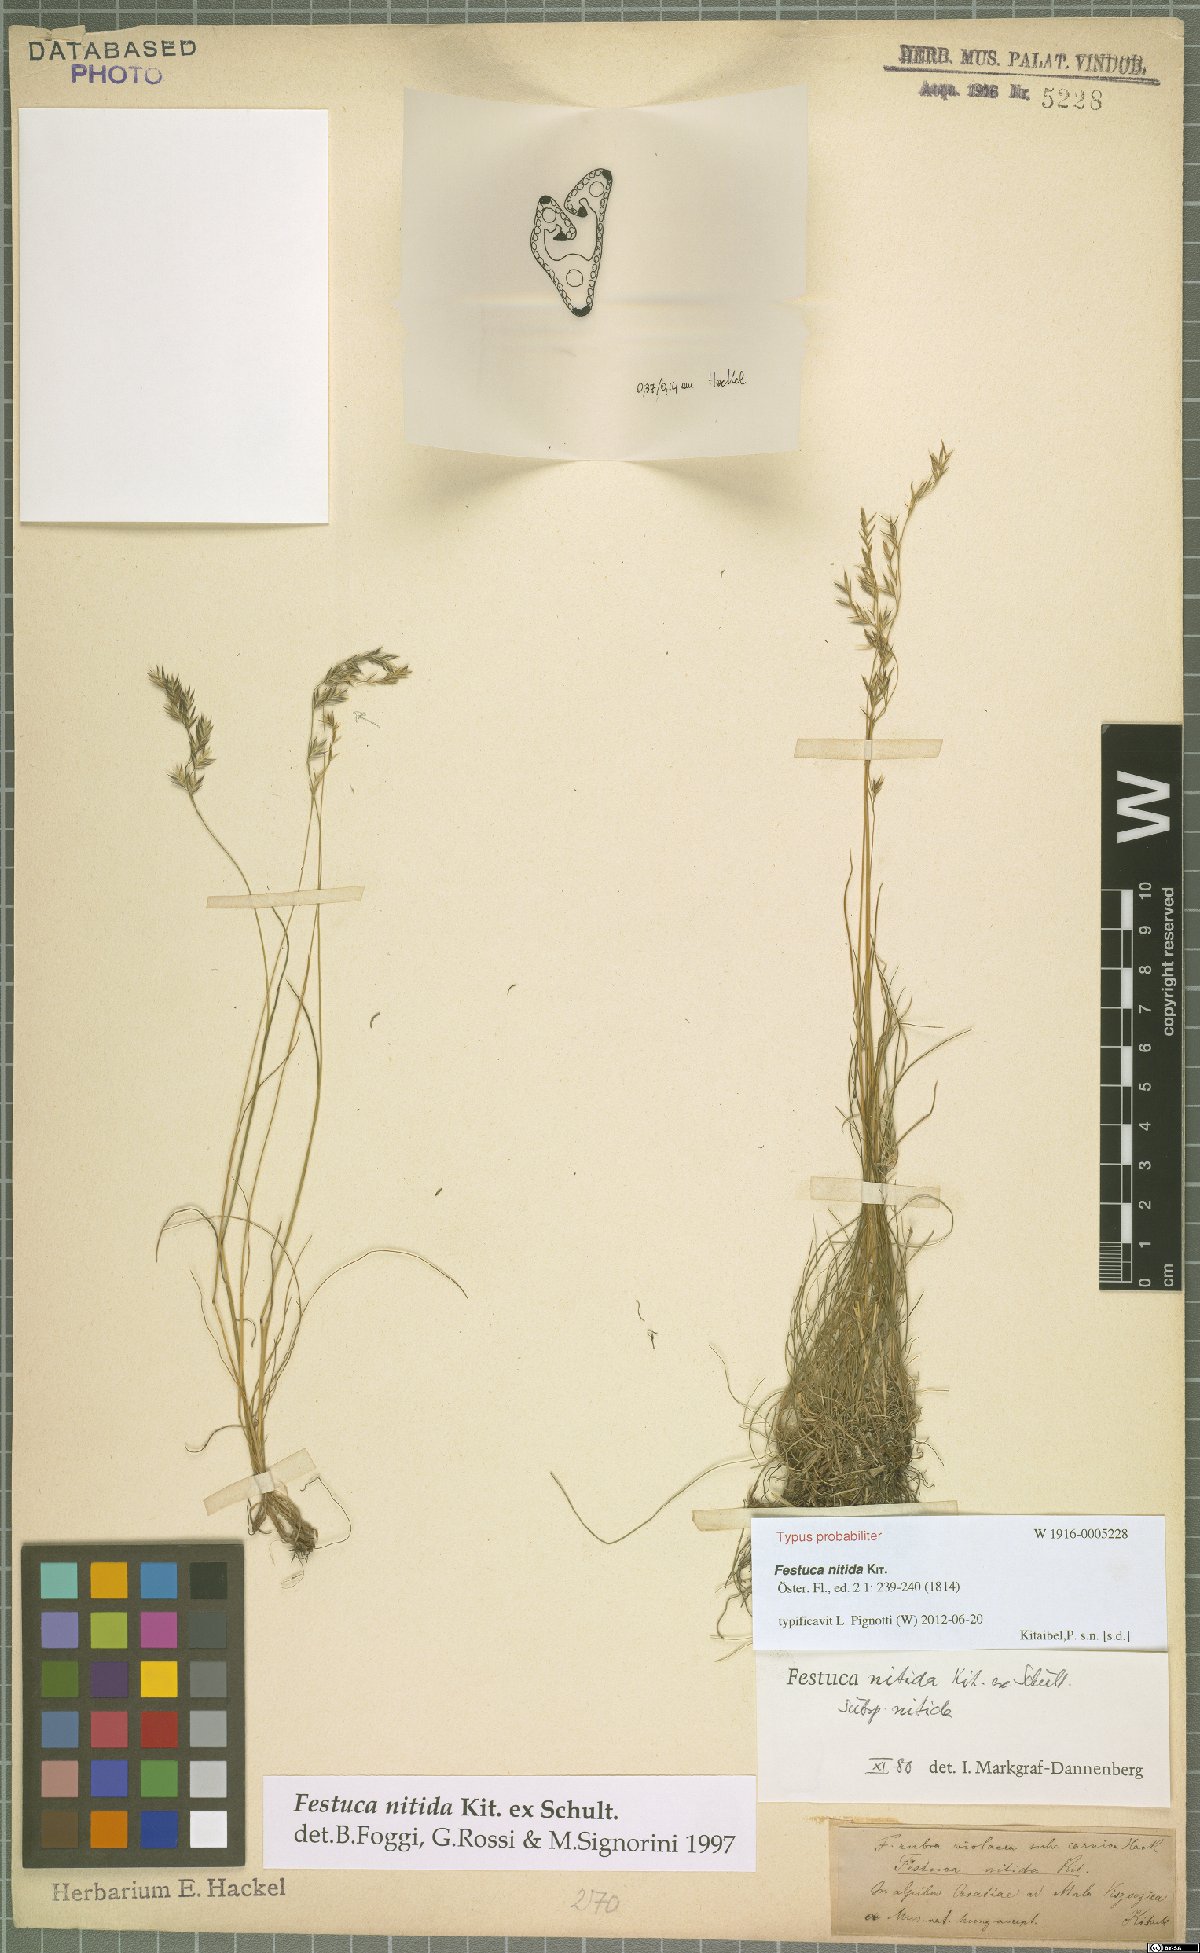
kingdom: Plantae
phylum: Tracheophyta
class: Liliopsida
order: Poales
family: Poaceae
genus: Festuca
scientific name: Festuca nitida
